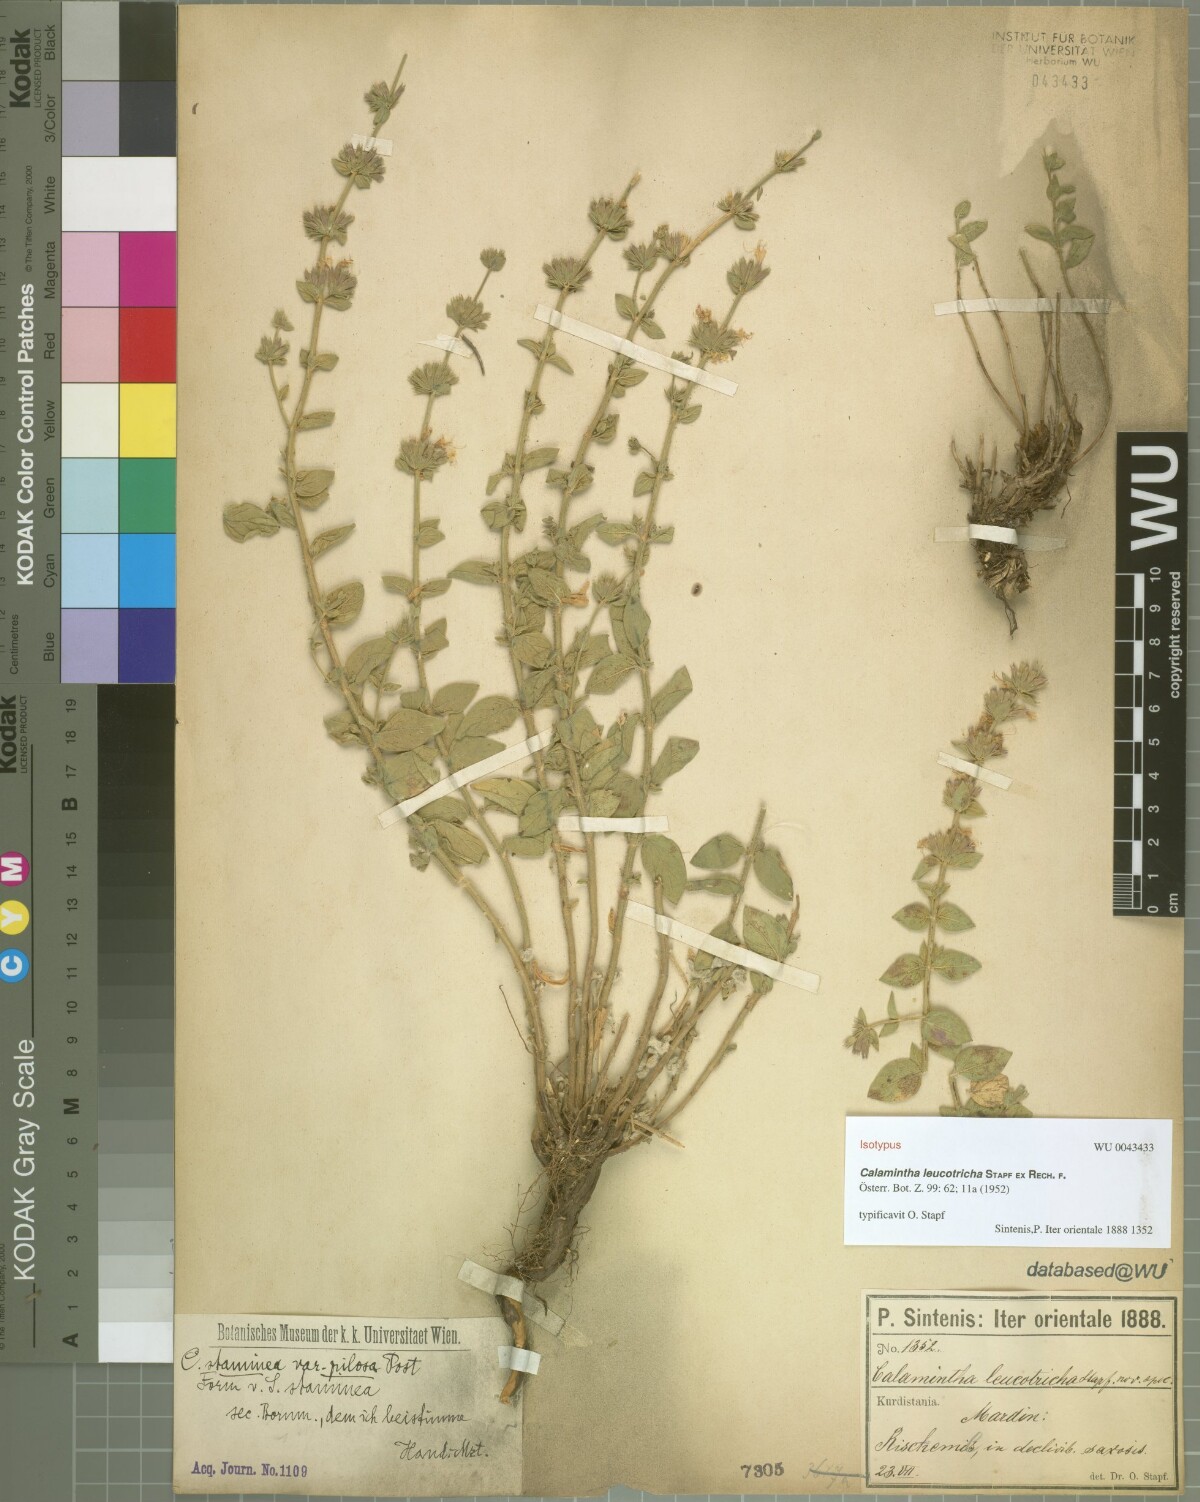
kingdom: Plantae
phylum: Tracheophyta
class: Magnoliopsida
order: Lamiales
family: Lamiaceae
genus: Cyclotrichium
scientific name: Cyclotrichium leucotrichum
